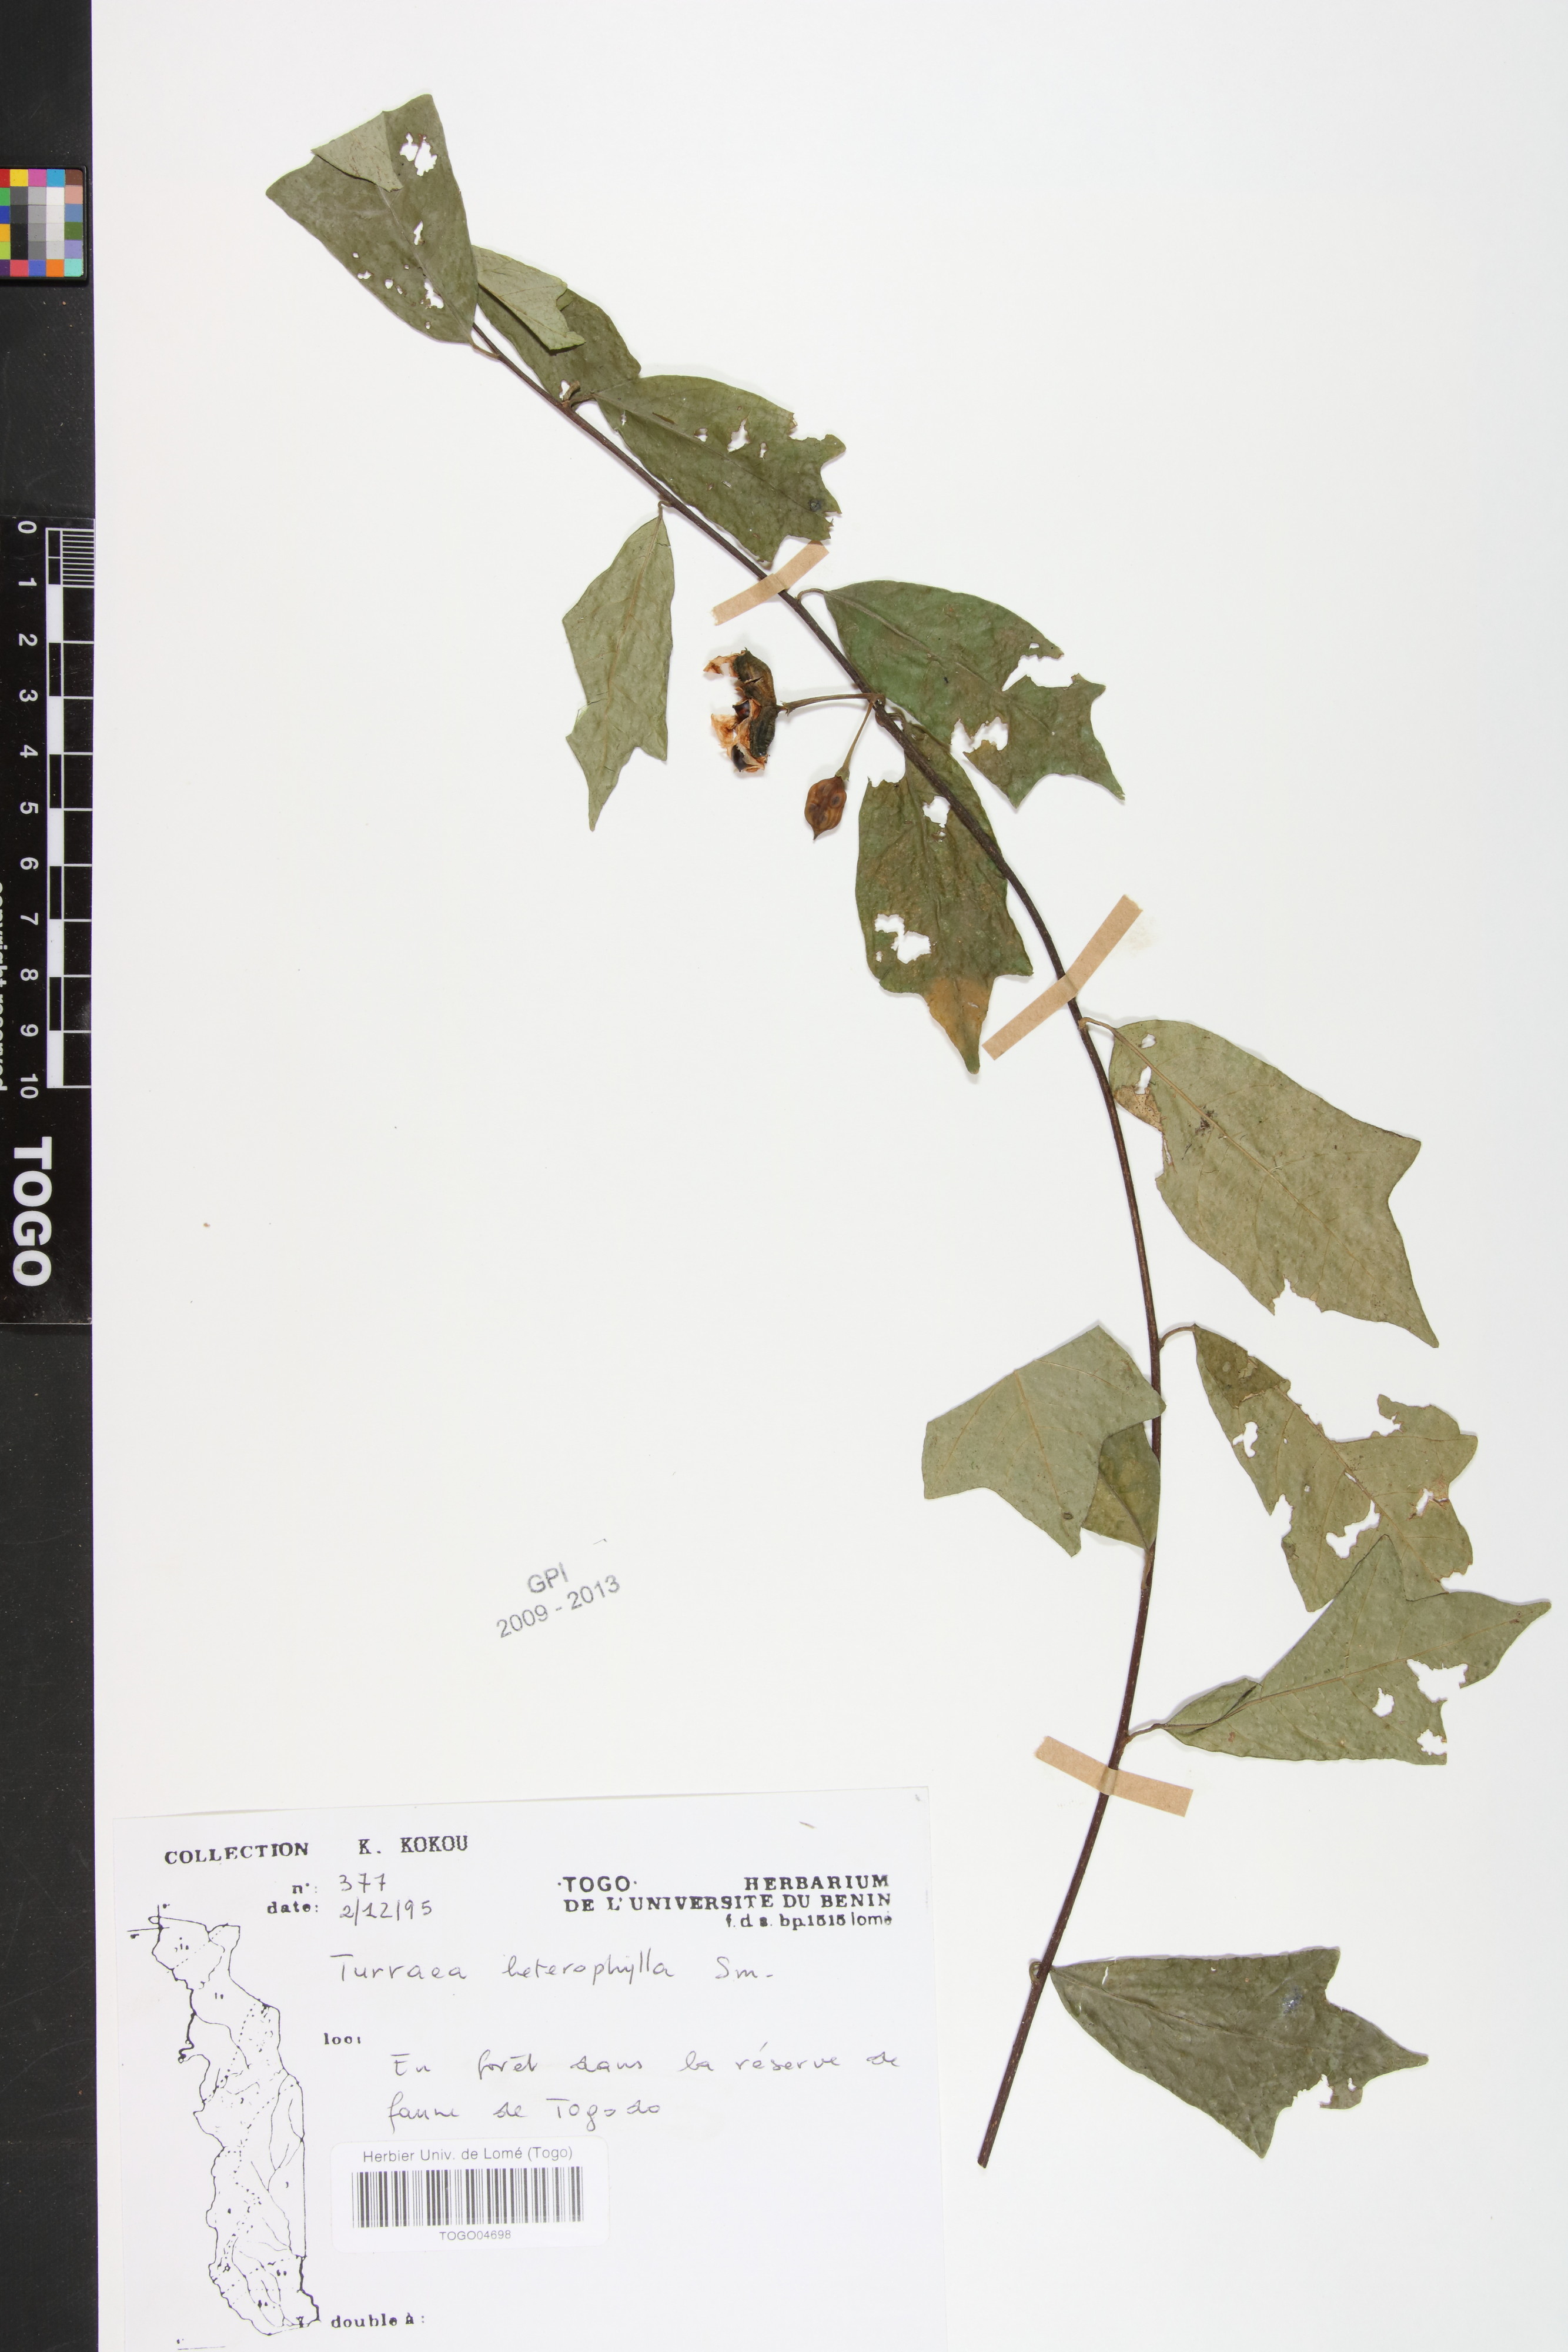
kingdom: Plantae
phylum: Tracheophyta
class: Magnoliopsida
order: Sapindales
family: Meliaceae
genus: Turraea
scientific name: Turraea heterophylla
